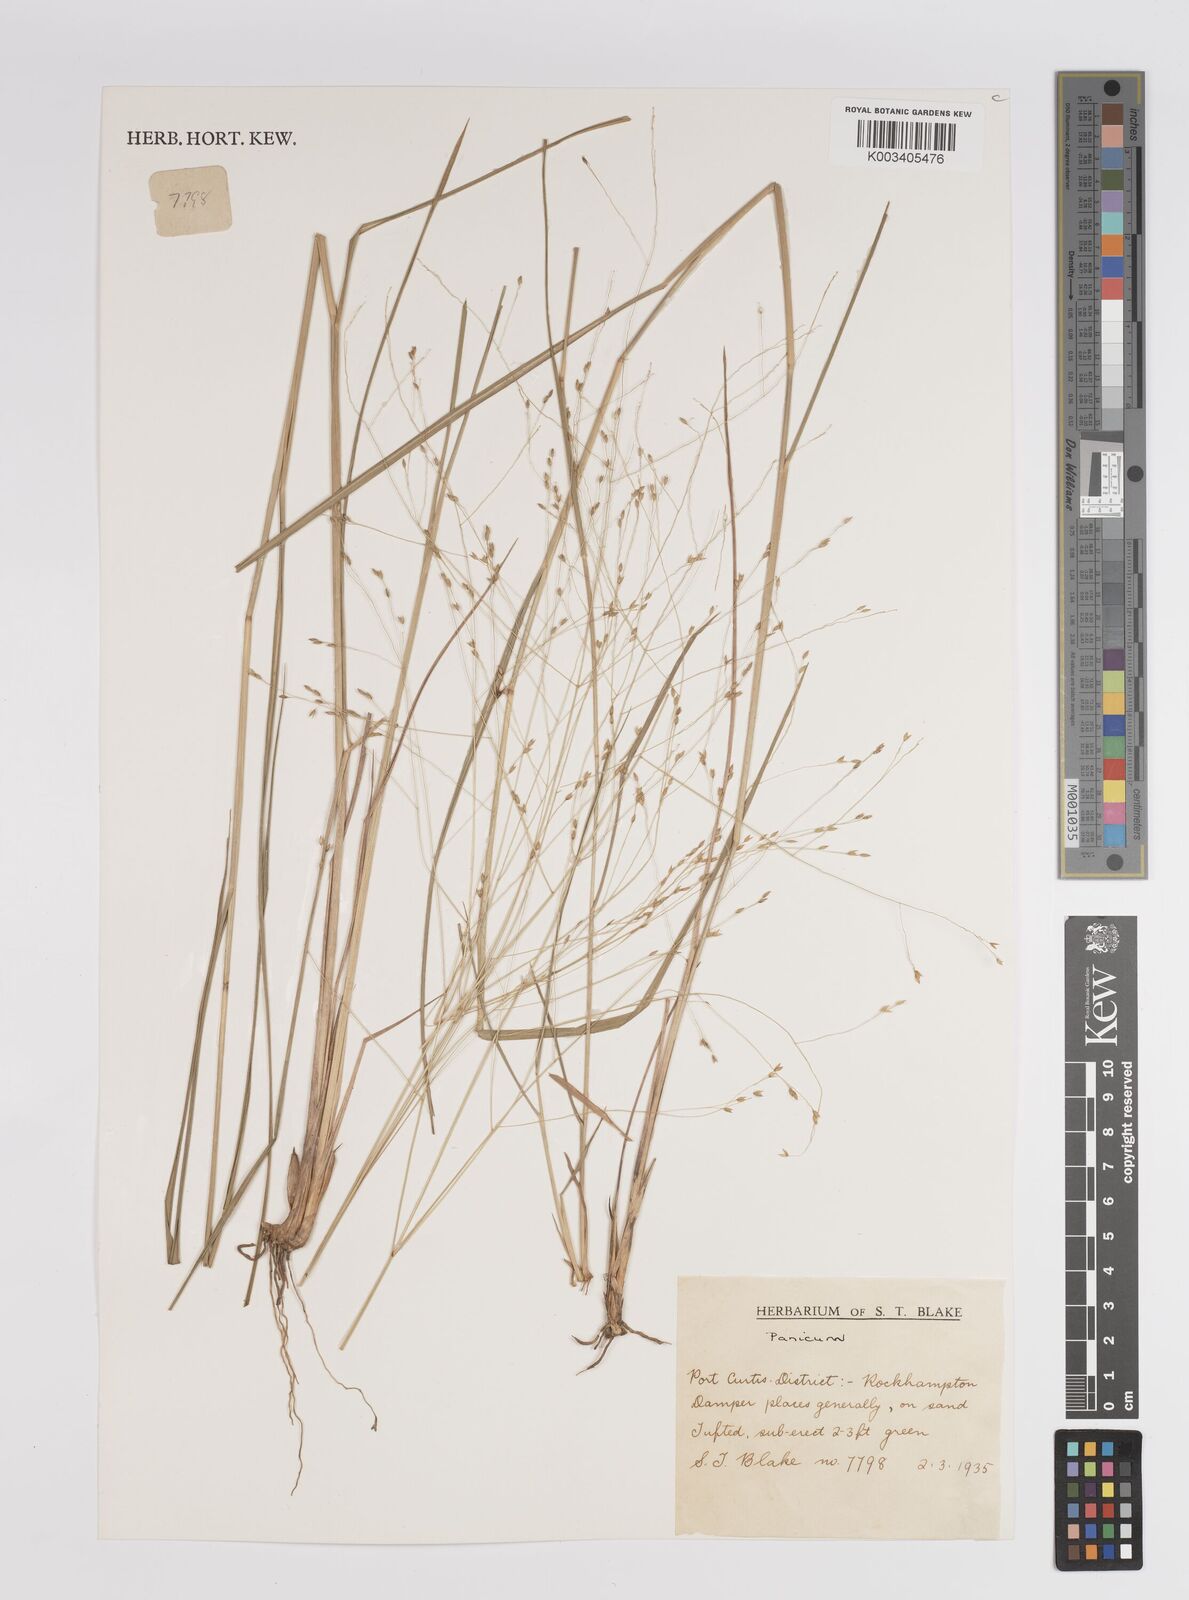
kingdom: Plantae
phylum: Tracheophyta
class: Liliopsida
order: Poales
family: Poaceae
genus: Panicum
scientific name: Panicum
